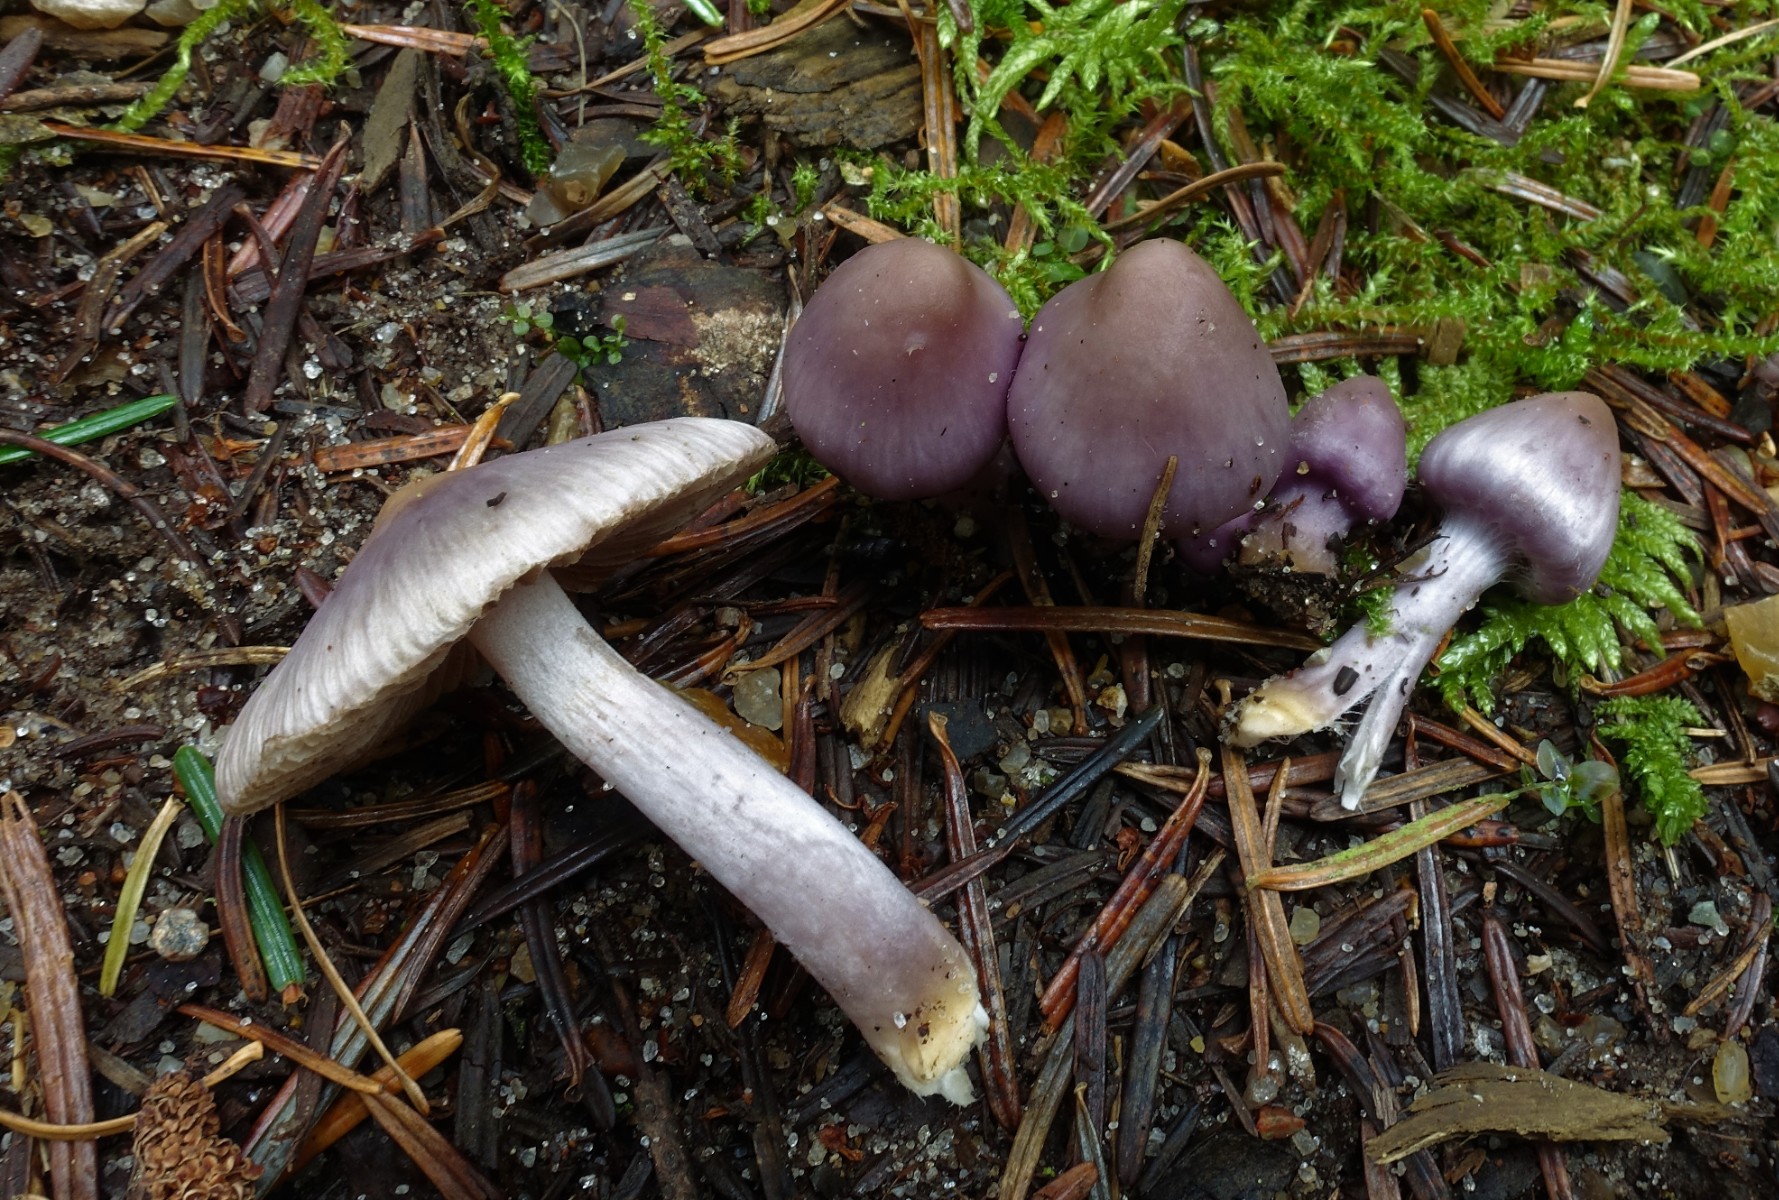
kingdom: Fungi
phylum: Basidiomycota
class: Agaricomycetes
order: Agaricales
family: Inocybaceae
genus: Inocybe
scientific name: Inocybe geophylla
